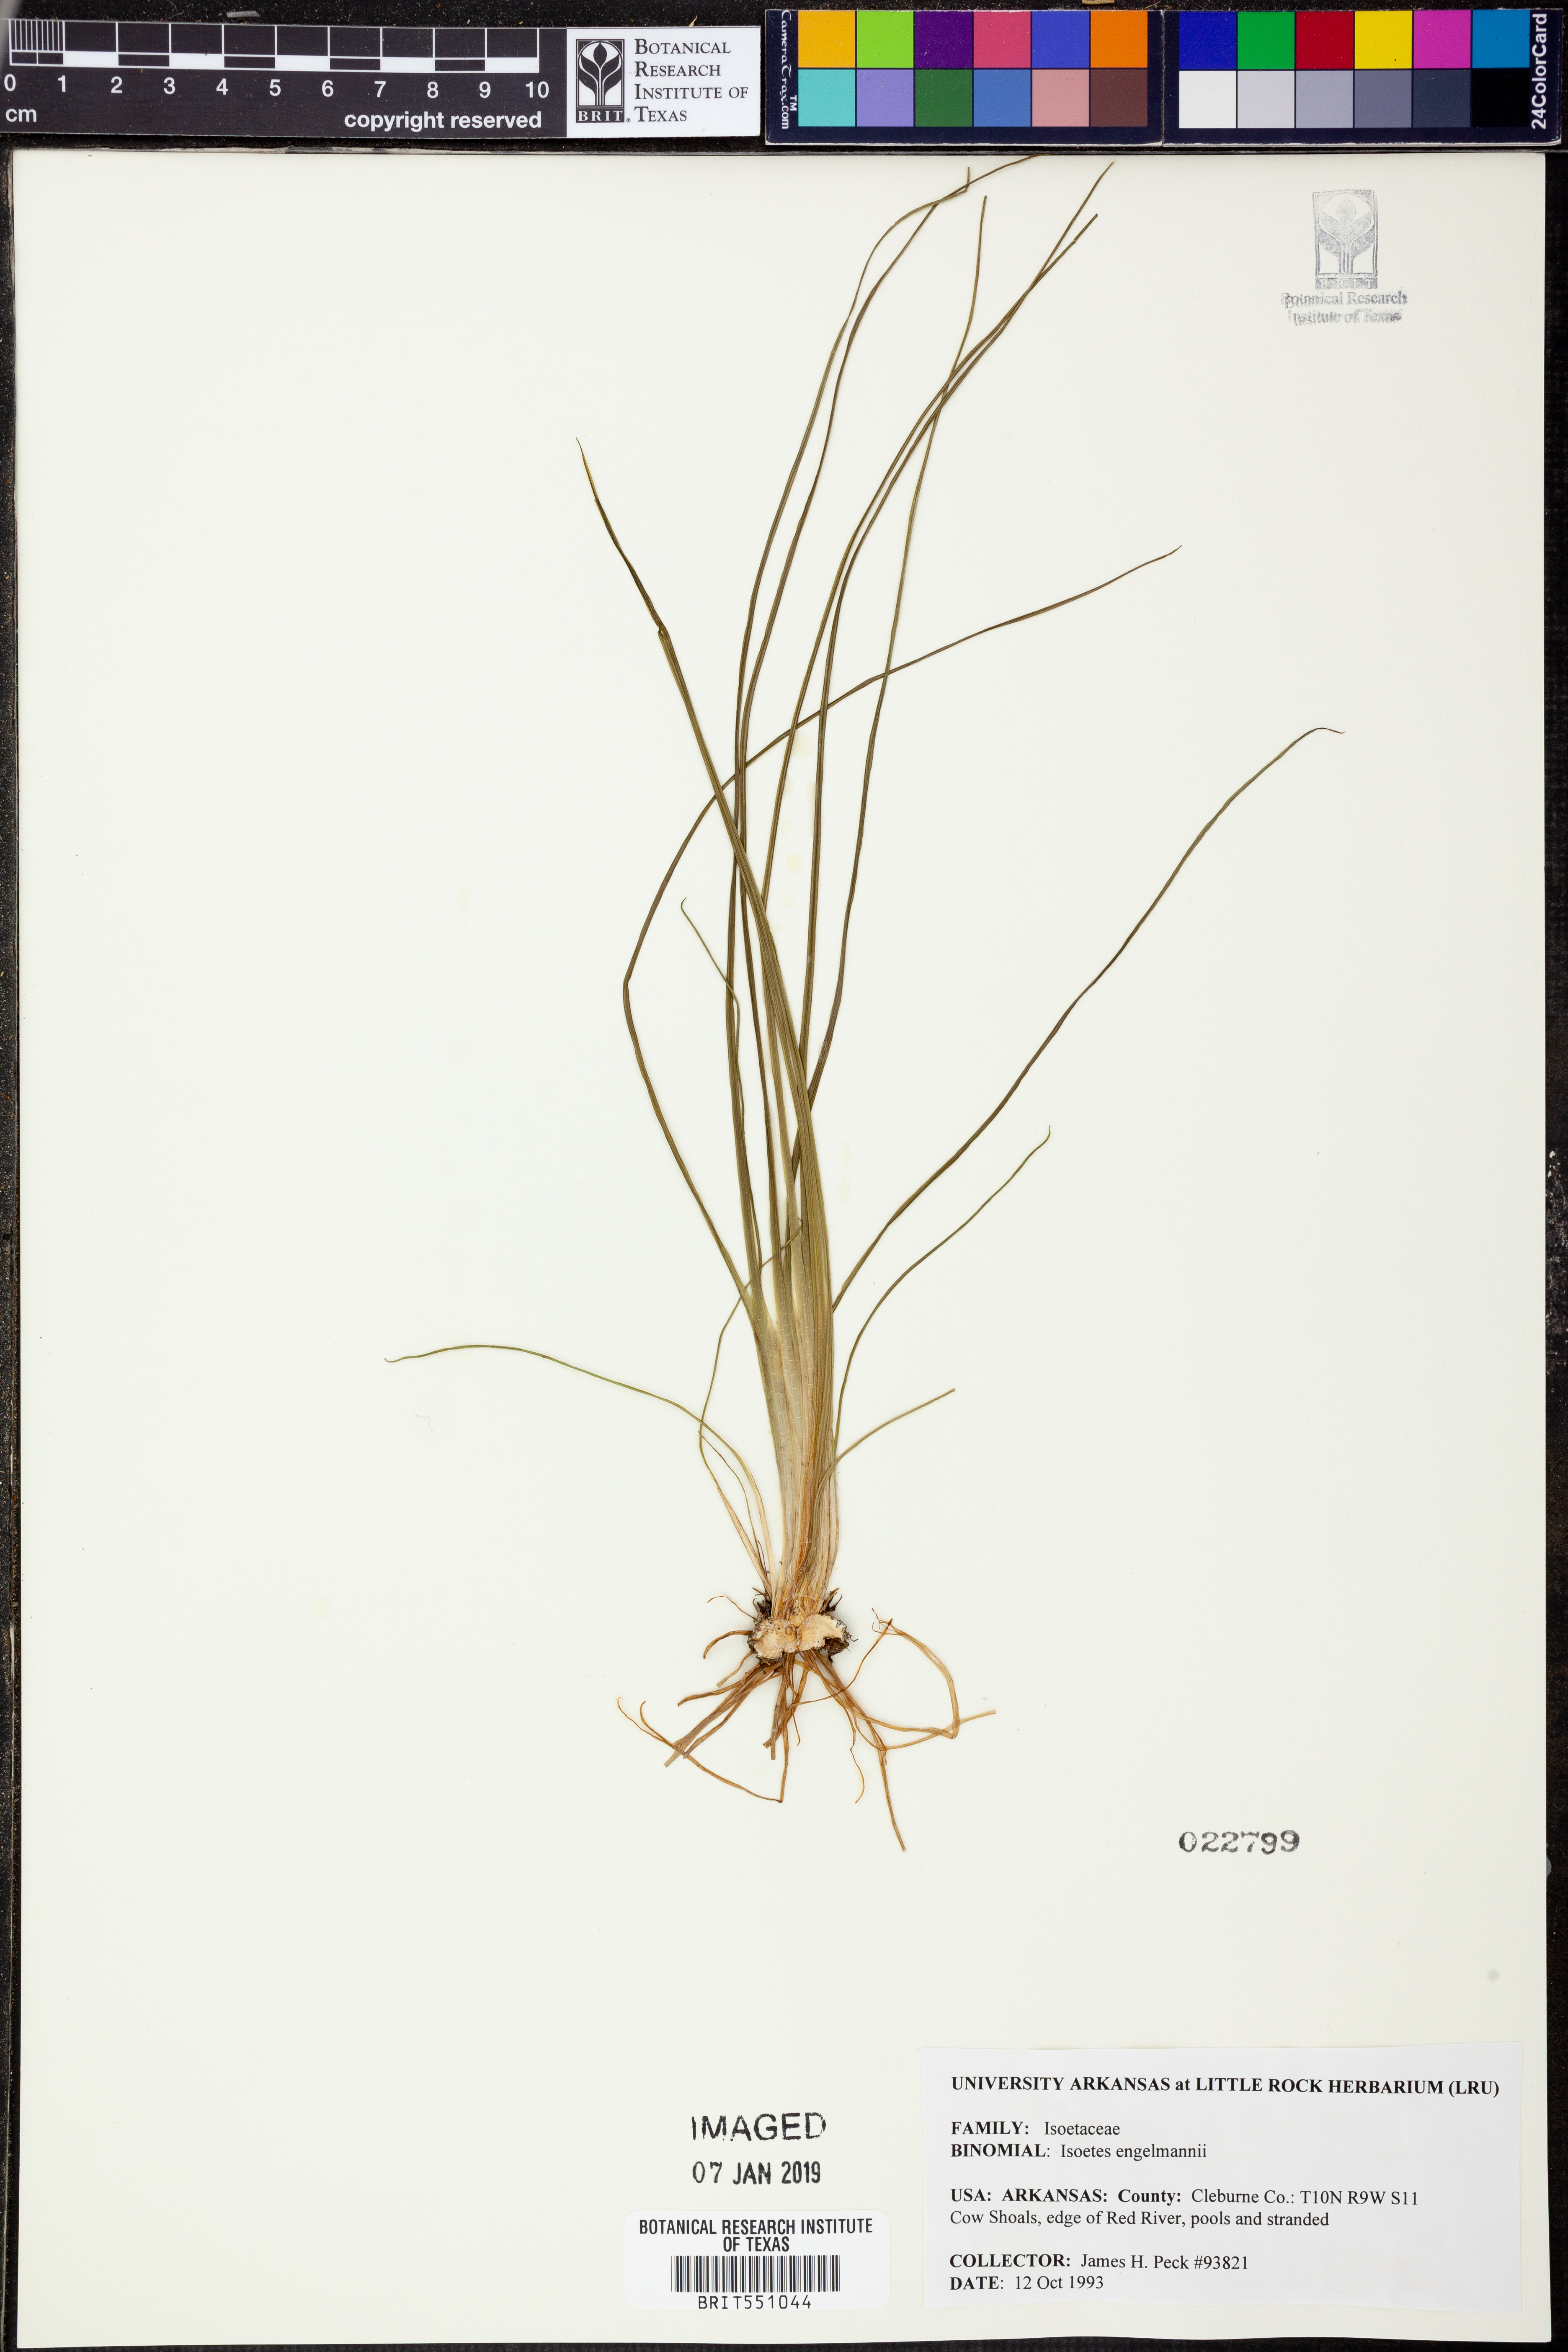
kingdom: Plantae
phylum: Tracheophyta
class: Lycopodiopsida
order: Isoetales
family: Isoetaceae
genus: Isoetes
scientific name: Isoetes engelmannii
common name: Engelmann's quillwort
